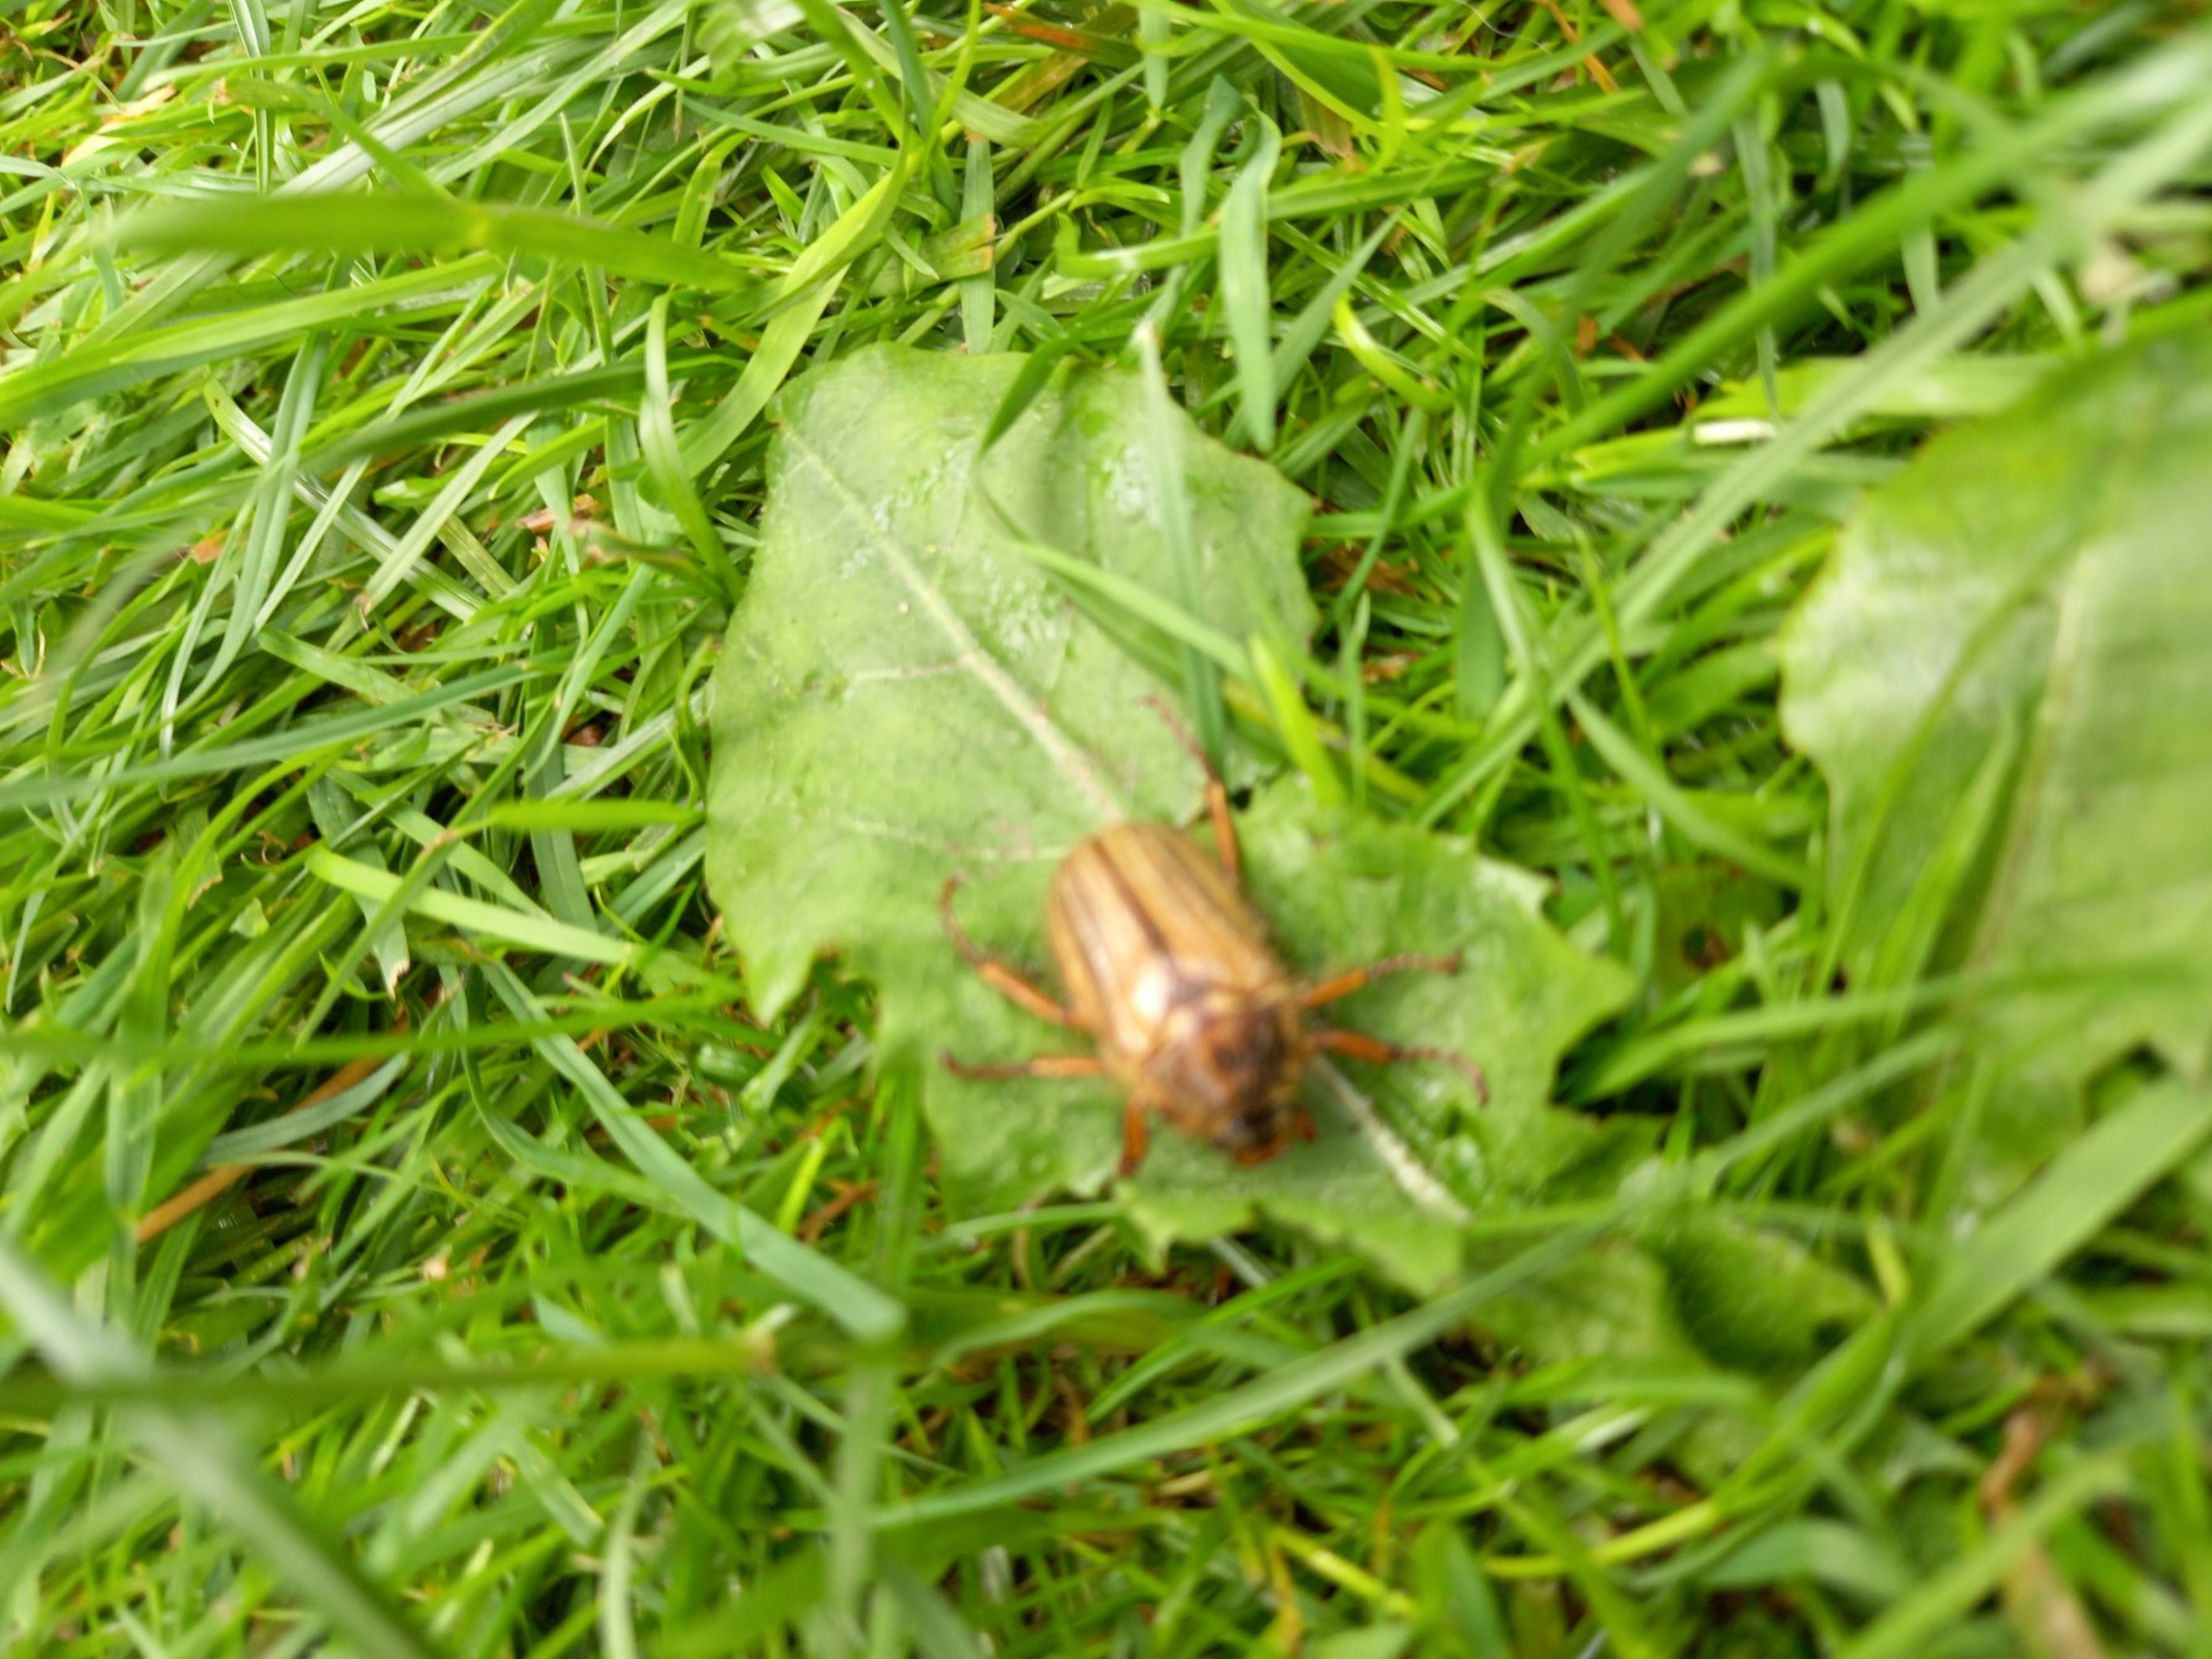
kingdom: Animalia
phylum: Arthropoda
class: Insecta
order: Coleoptera
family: Scarabaeidae
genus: Amphimallon
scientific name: Amphimallon solstitiale
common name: Sankthansoldenborre
